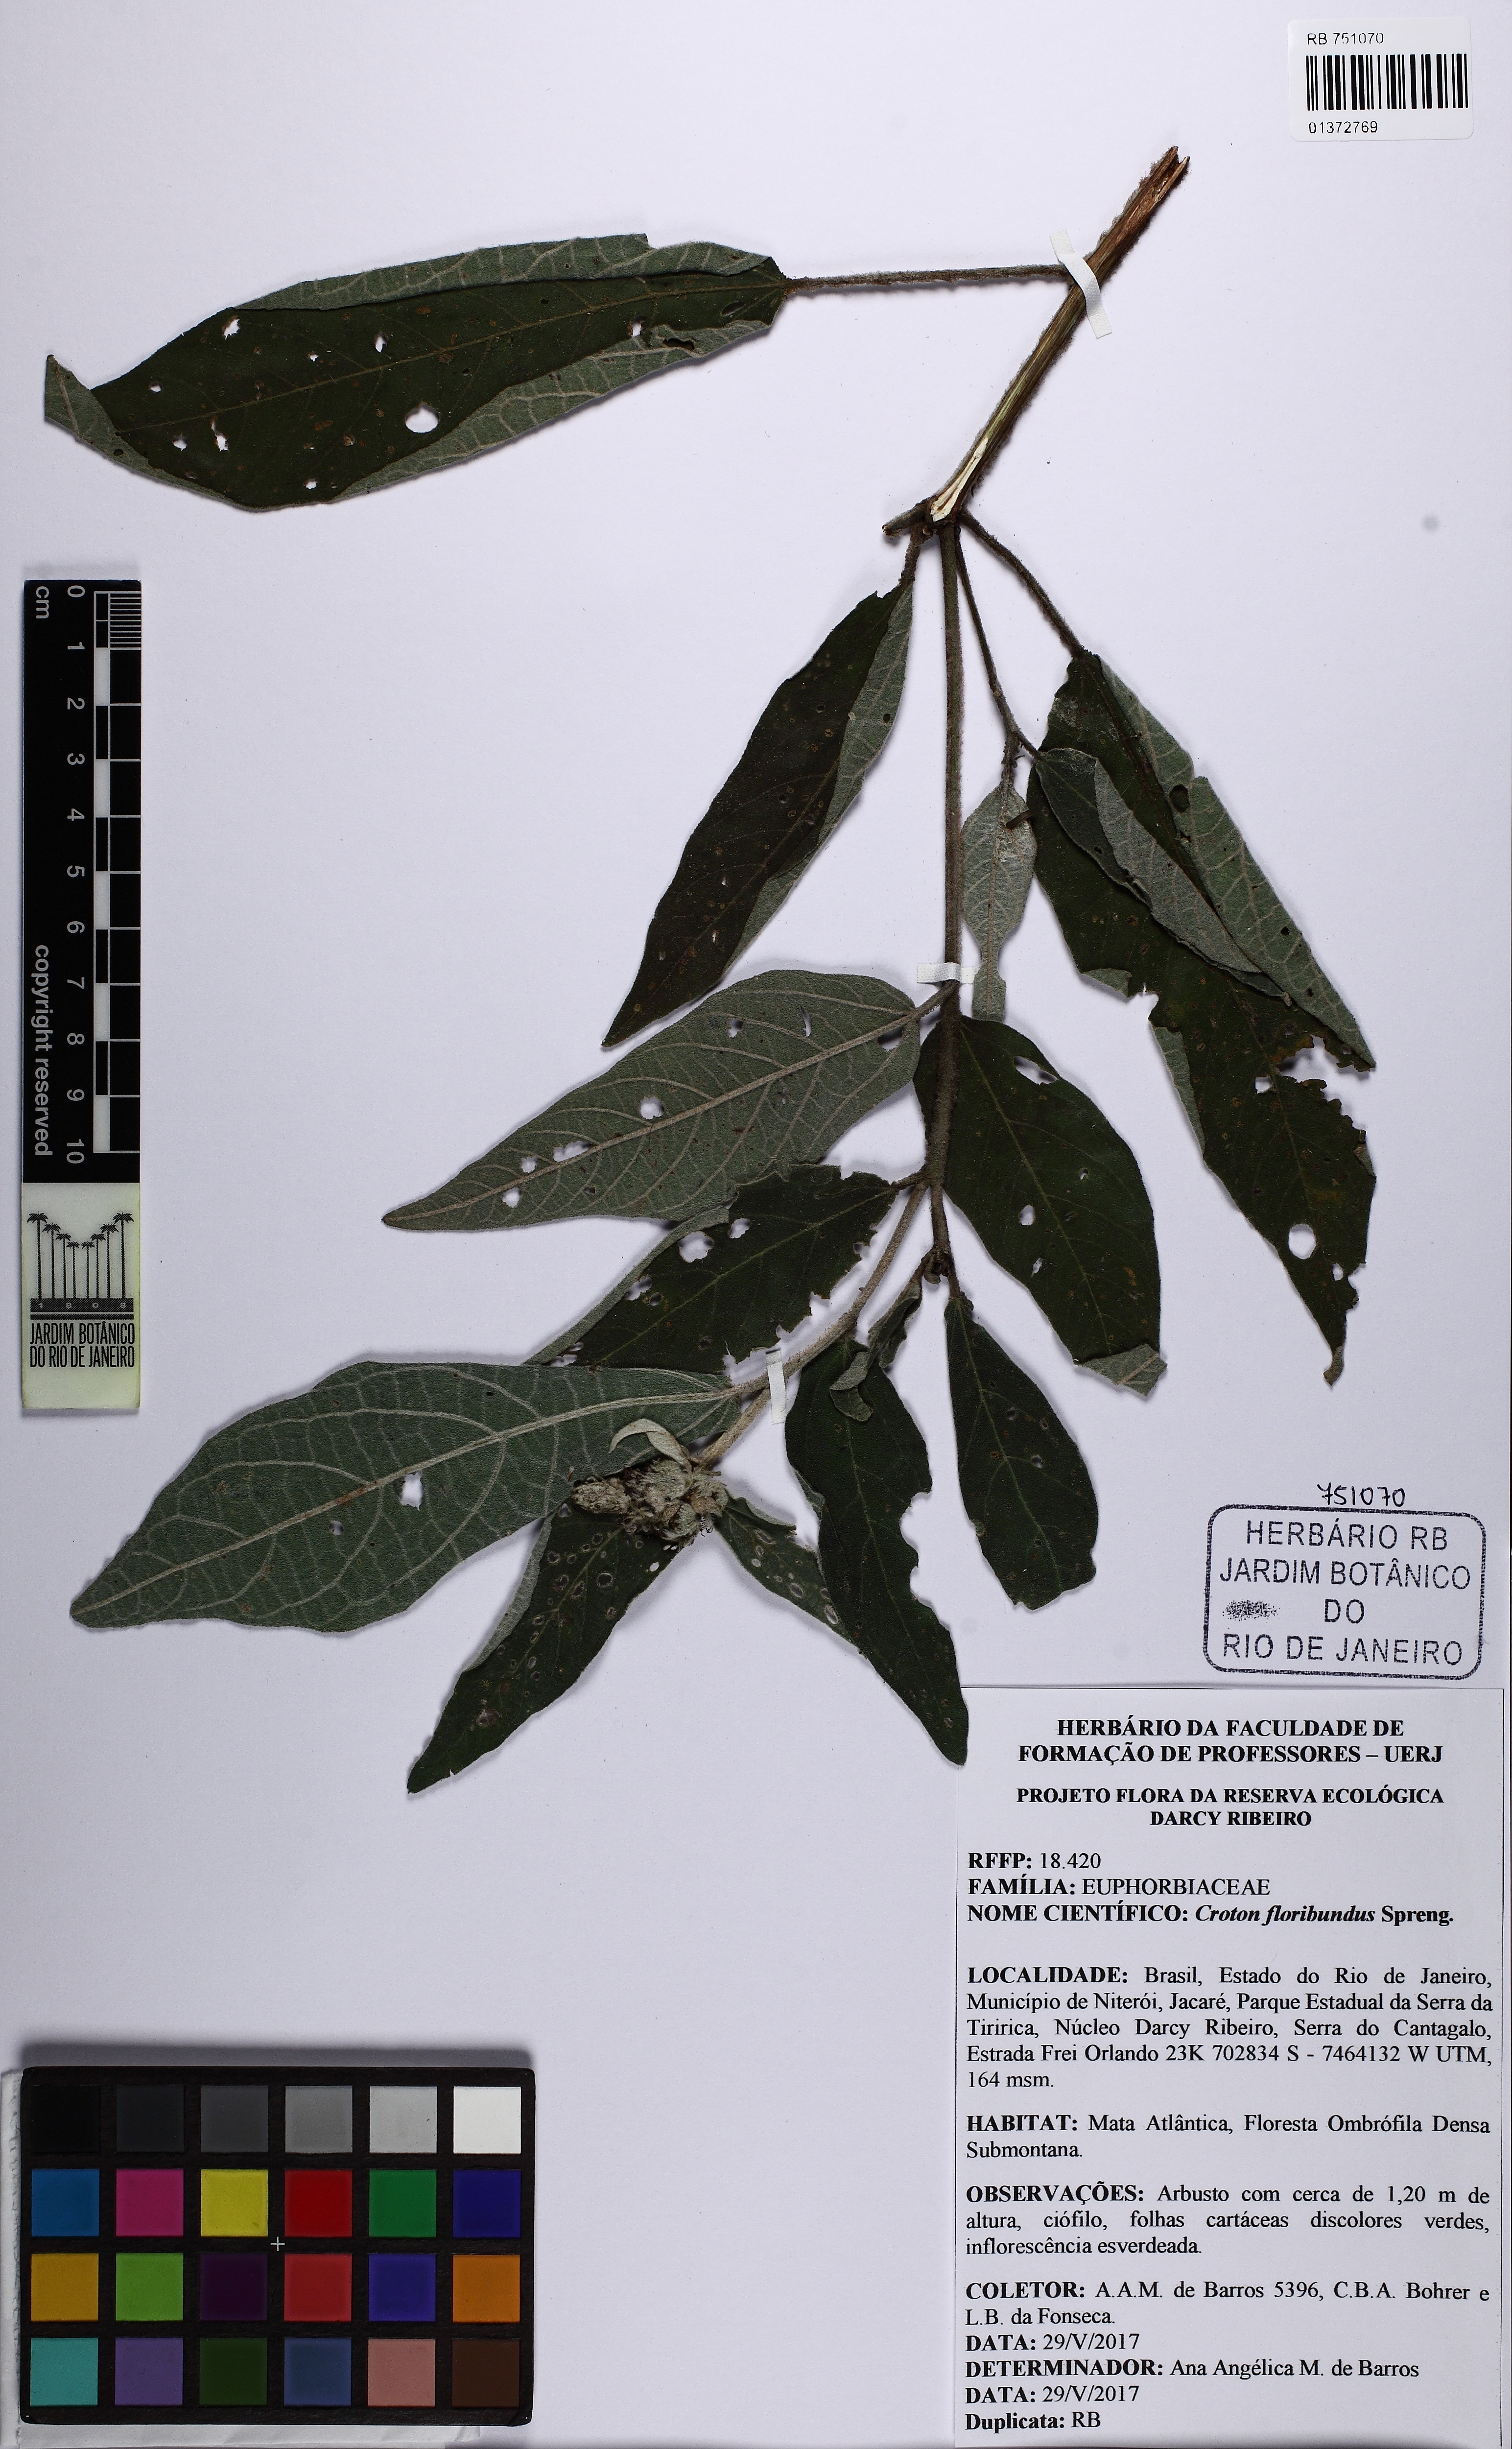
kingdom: Plantae
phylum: Tracheophyta
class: Magnoliopsida
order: Malpighiales
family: Euphorbiaceae
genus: Croton
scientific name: Croton gnaphaloides
